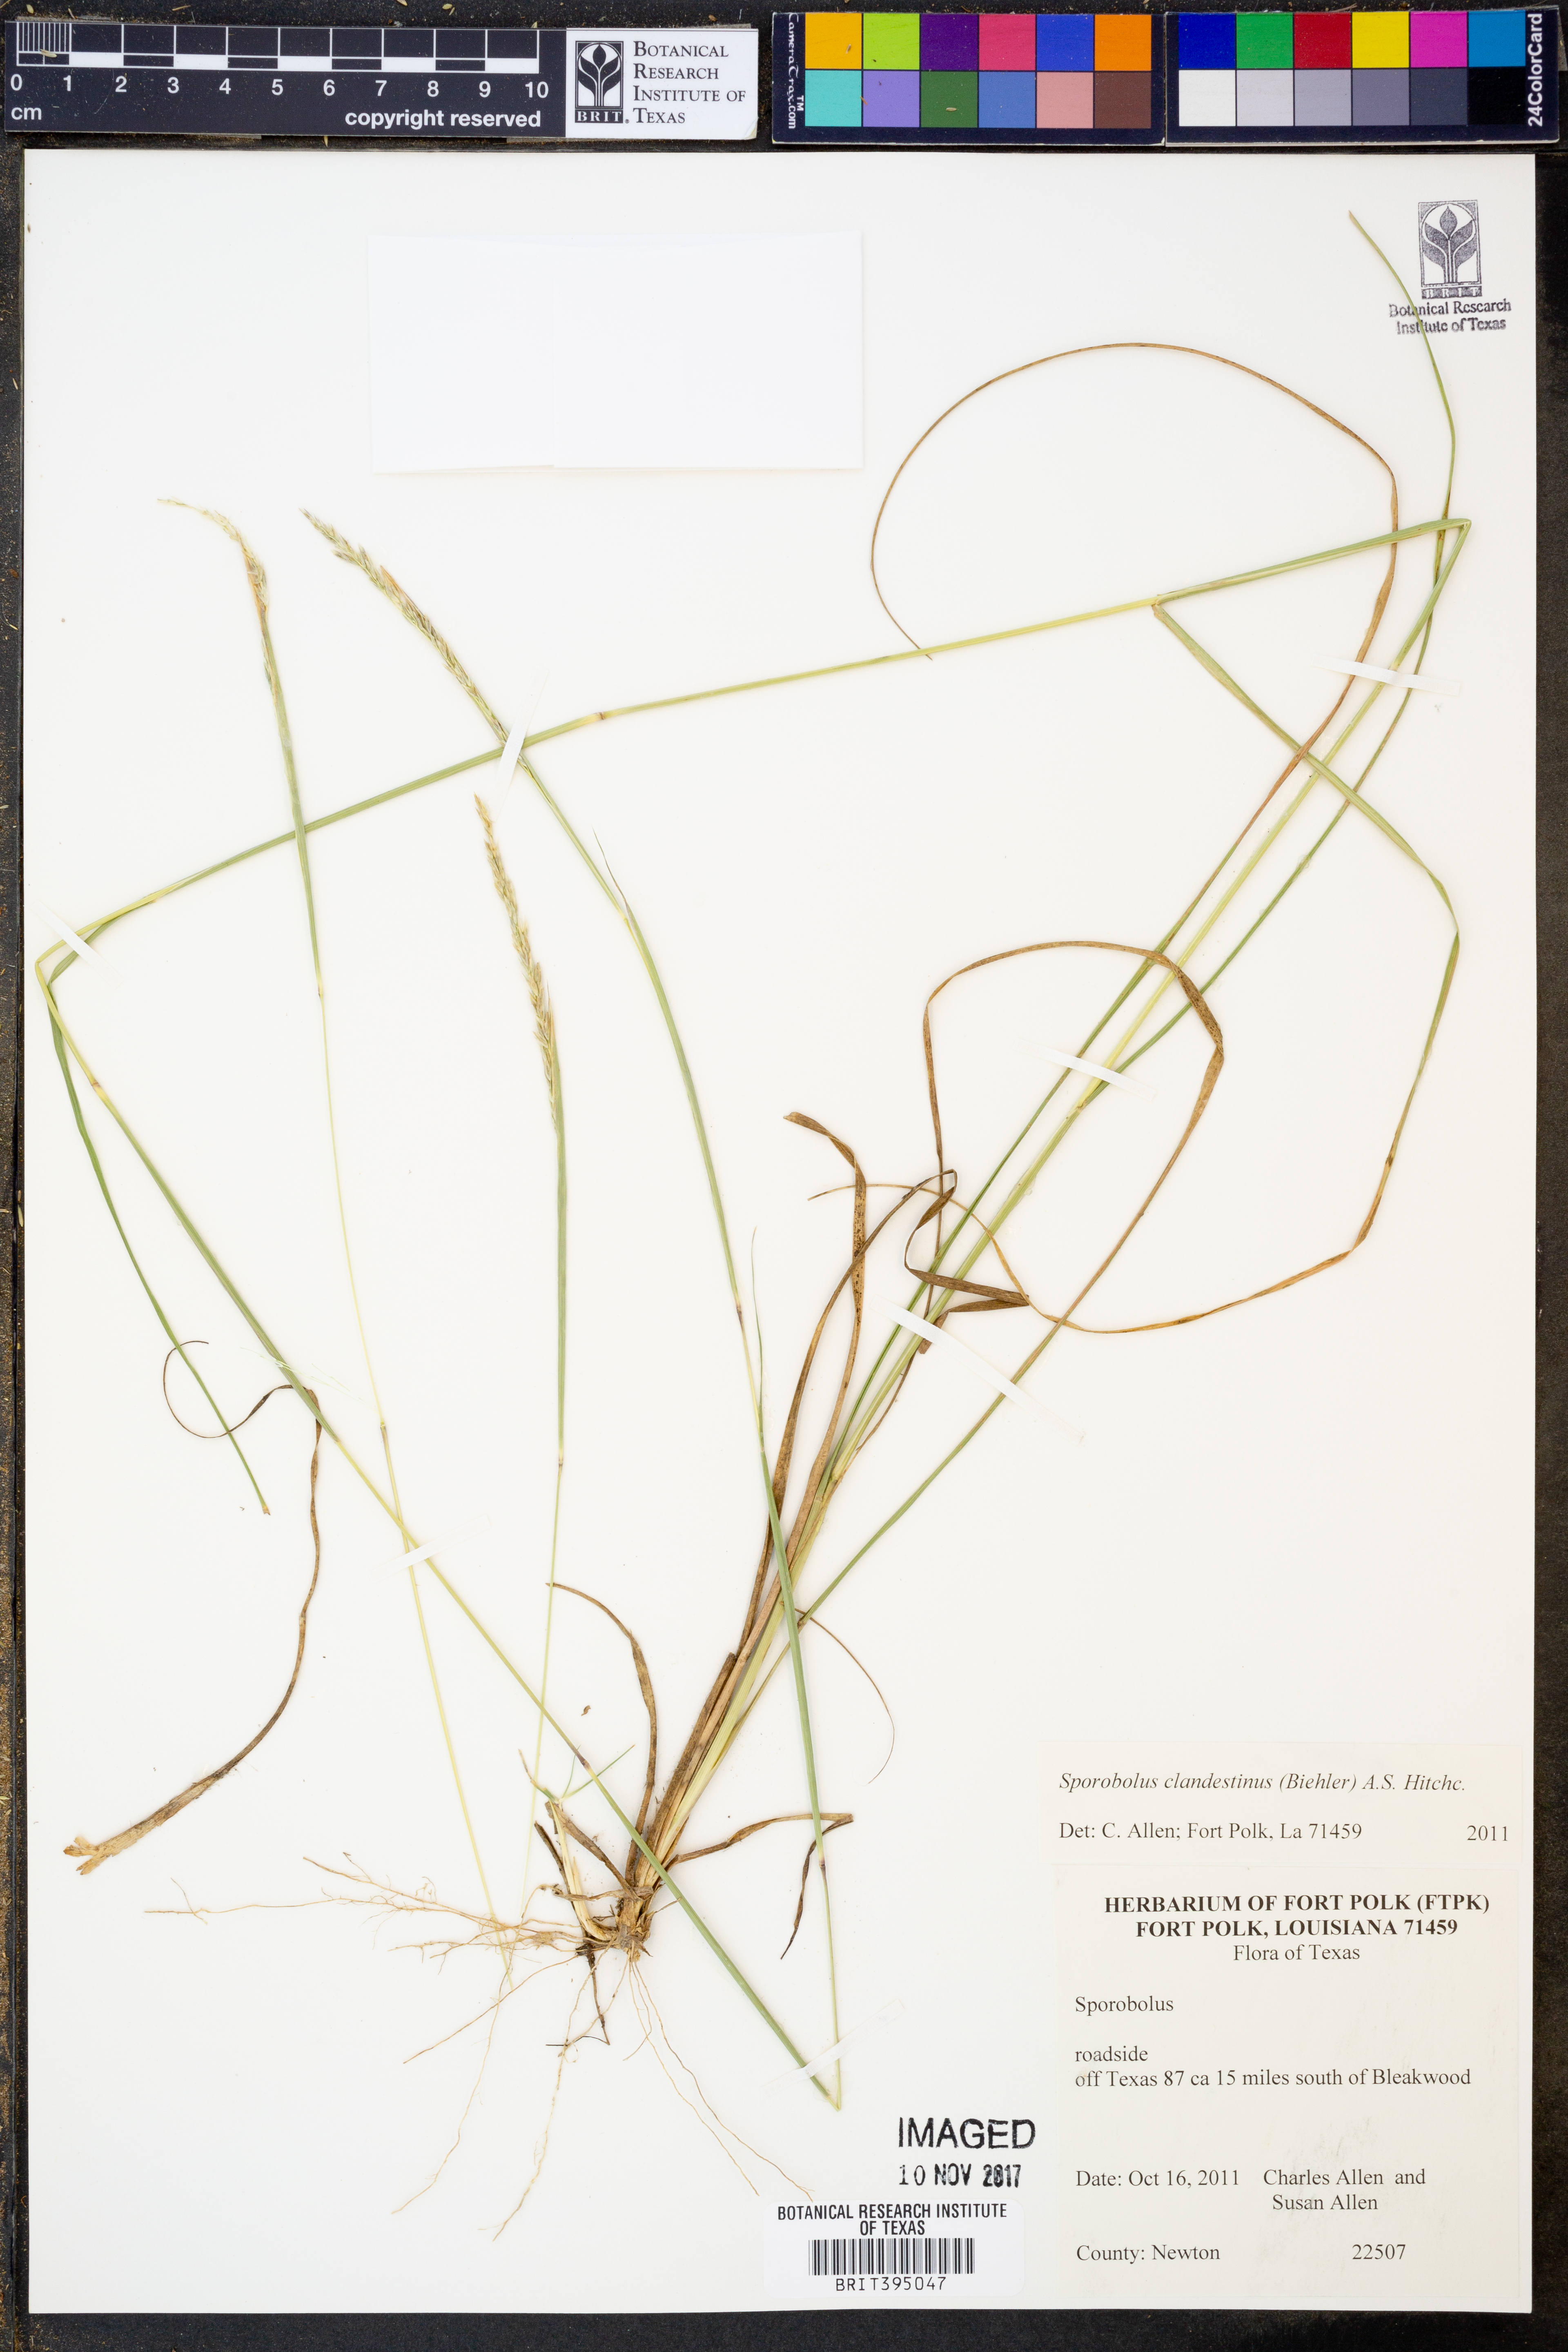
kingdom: Plantae
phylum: Tracheophyta
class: Liliopsida
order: Poales
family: Poaceae
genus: Sporobolus
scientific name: Sporobolus clandestinus
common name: Hidden dropseed
